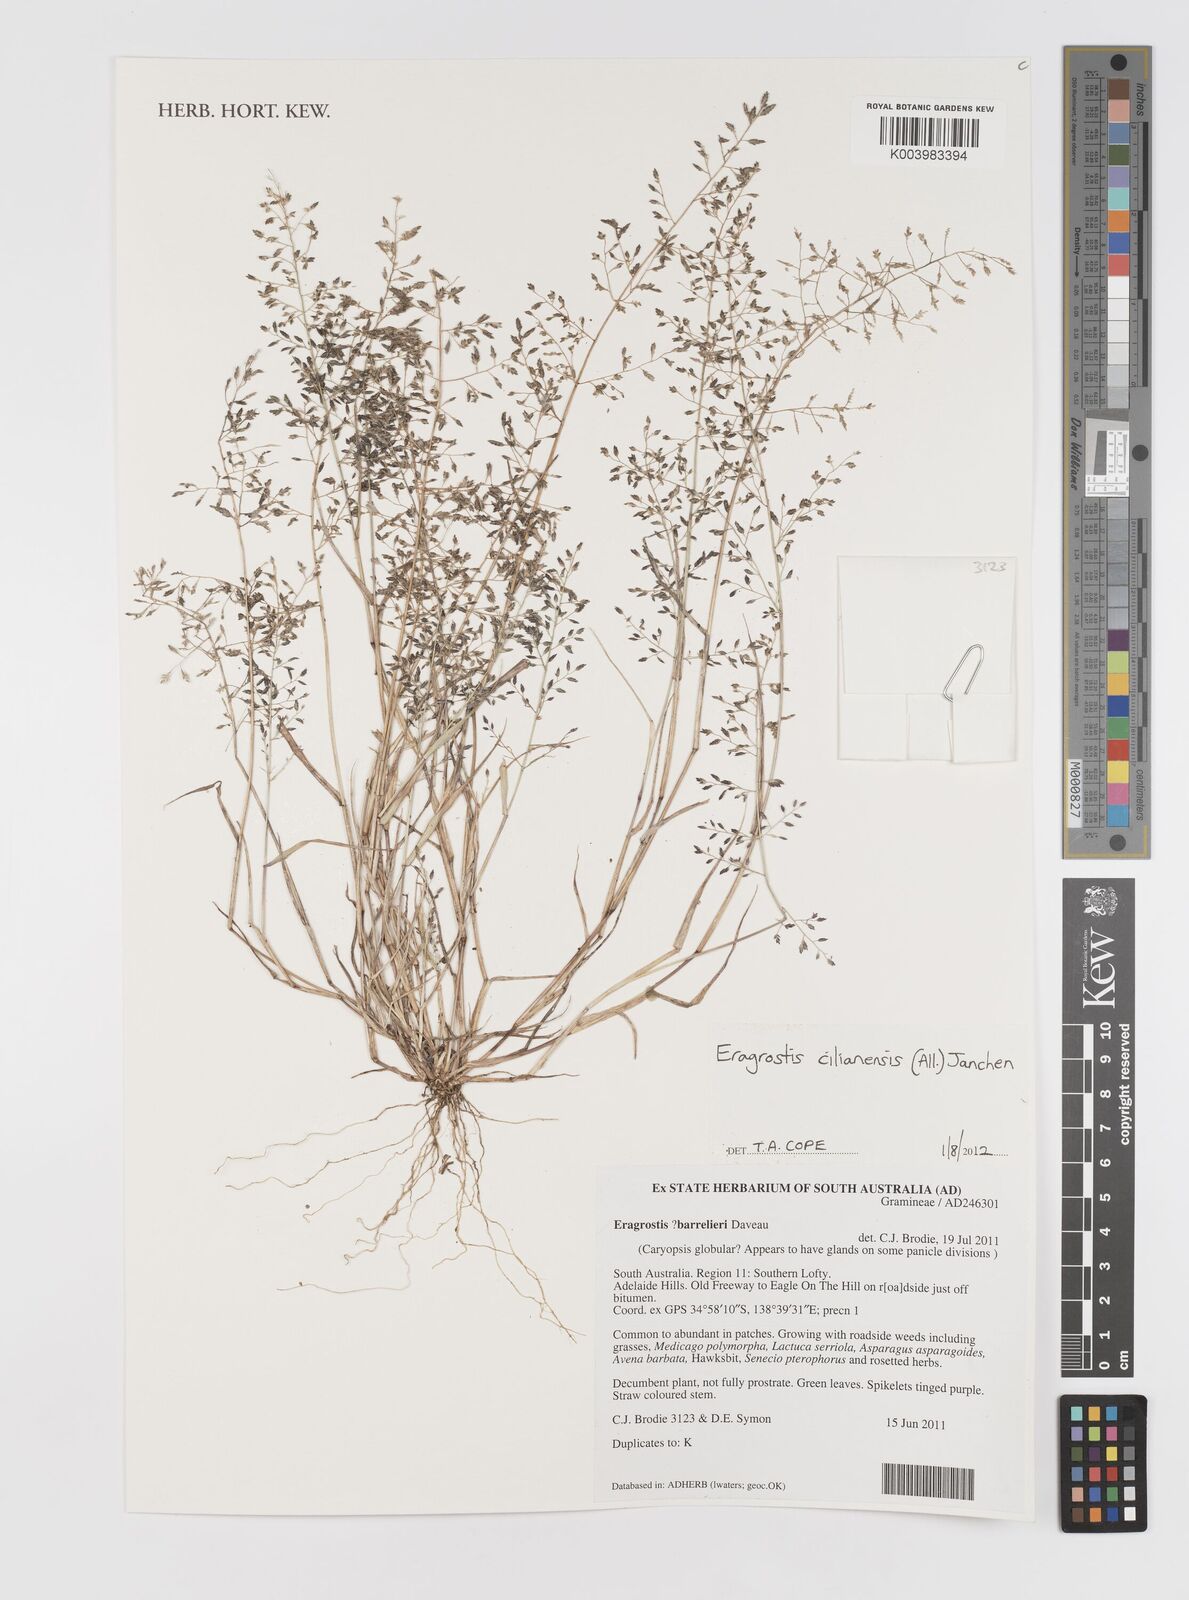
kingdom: Plantae
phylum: Tracheophyta
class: Liliopsida
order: Poales
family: Poaceae
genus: Eragrostis
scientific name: Eragrostis cilianensis
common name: Stinkgrass
